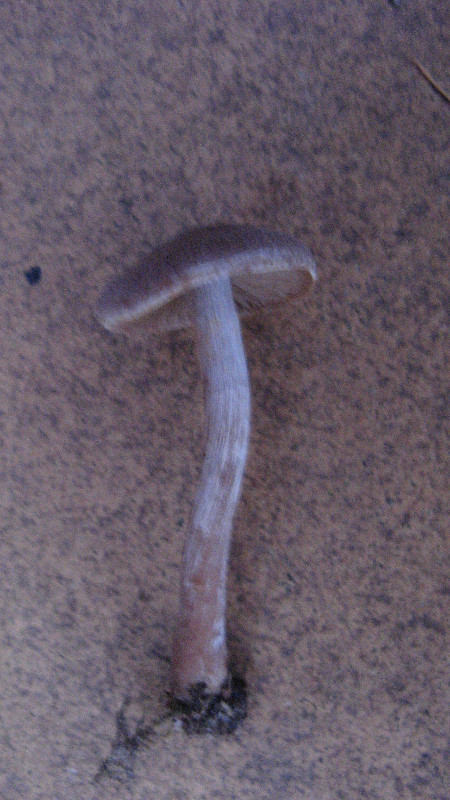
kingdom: Fungi
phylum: Basidiomycota
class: Agaricomycetes
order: Agaricales
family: Cortinariaceae
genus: Cortinarius
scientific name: Cortinarius hemitrichus
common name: hvidfnugget slørhat
